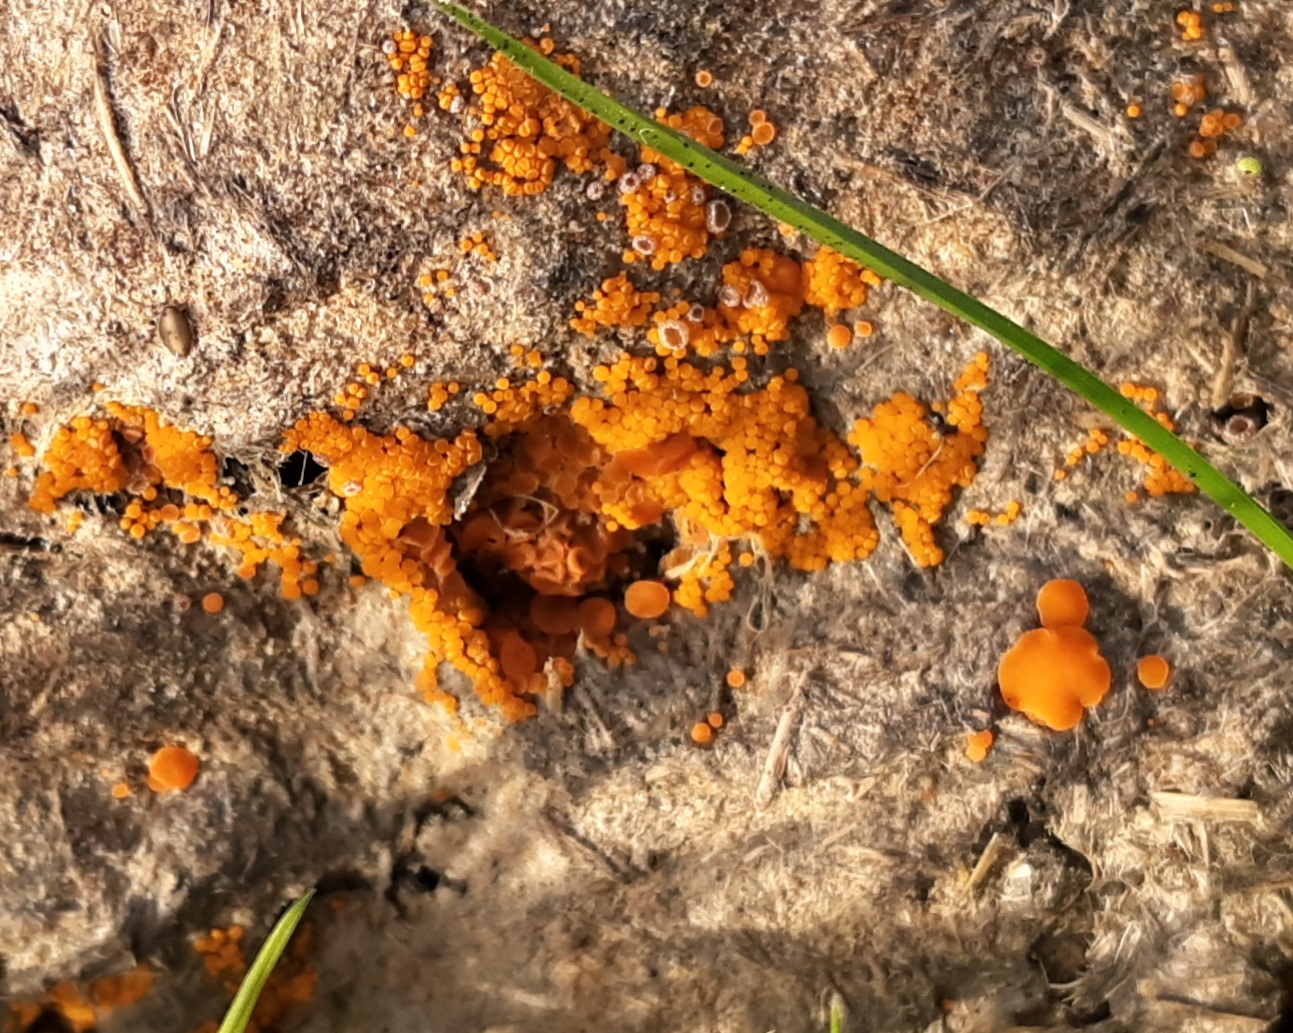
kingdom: Fungi
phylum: Ascomycota
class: Pezizomycetes
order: Pezizales
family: Pyronemataceae
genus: Cheilymenia
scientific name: Cheilymenia granulata
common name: møgbæger
